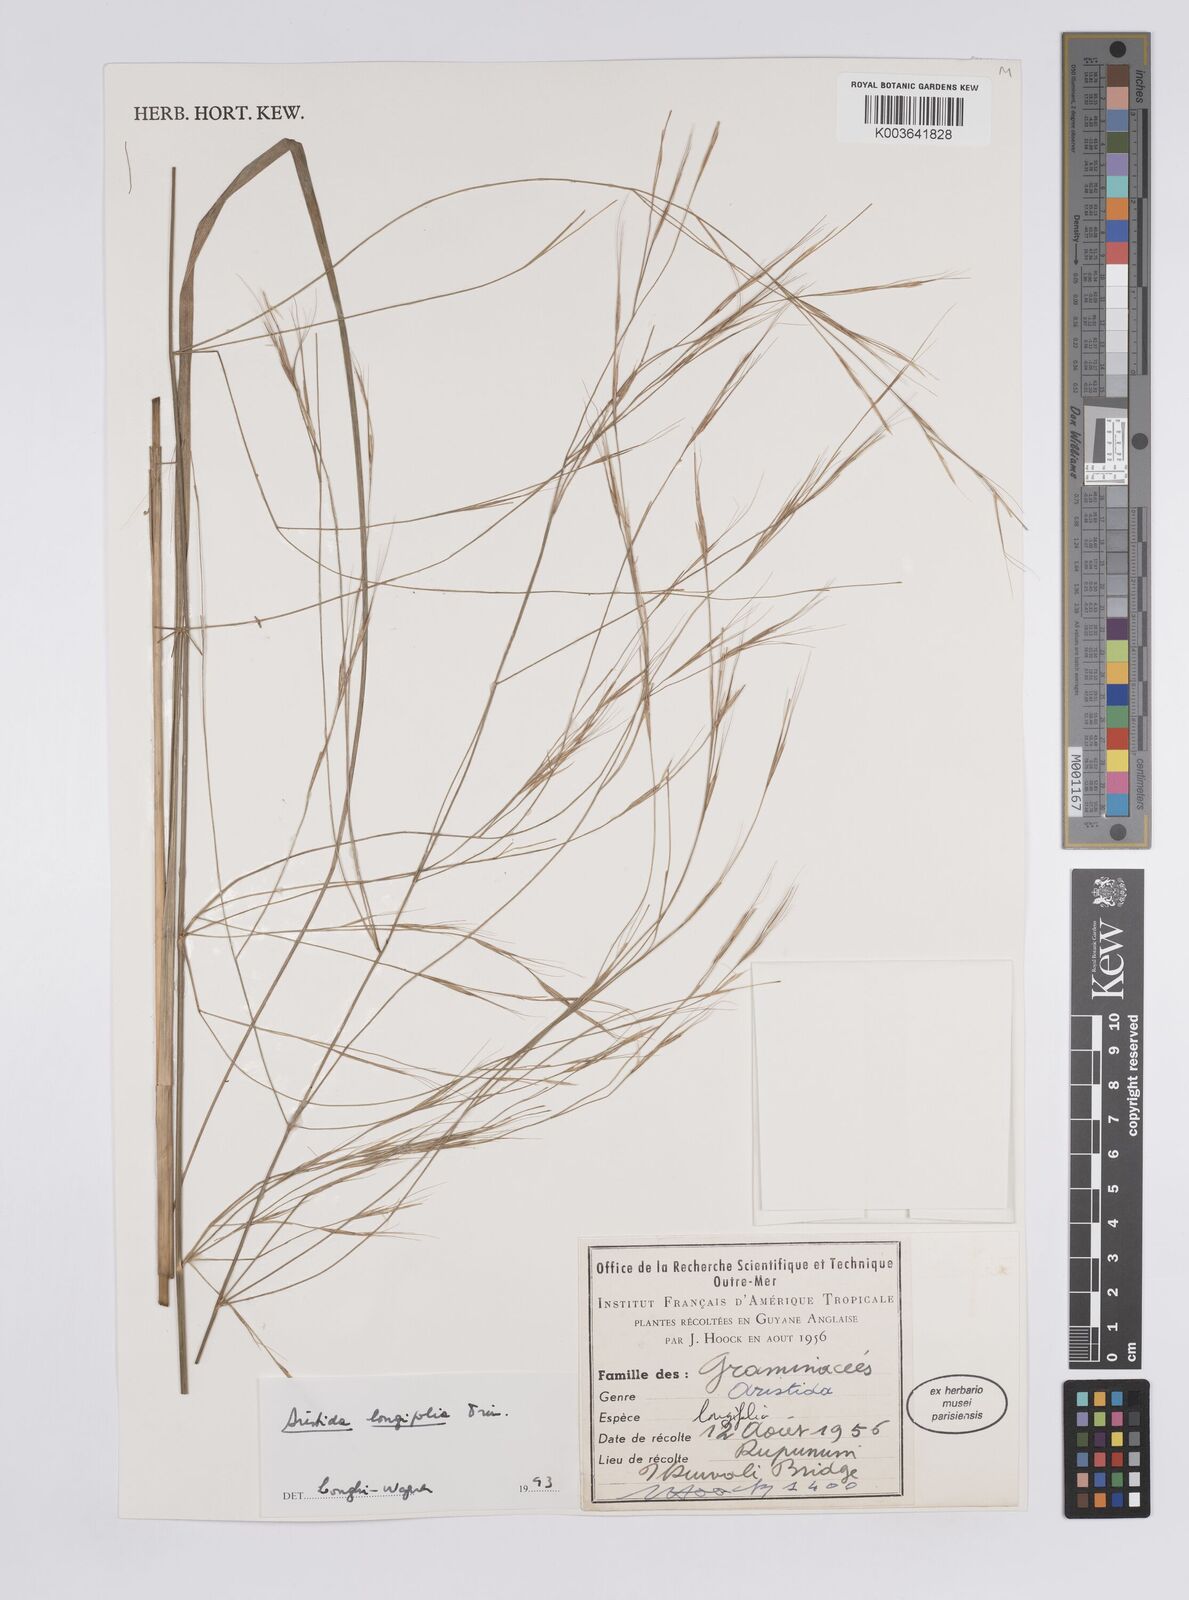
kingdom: Plantae
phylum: Tracheophyta
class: Liliopsida
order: Poales
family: Poaceae
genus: Aristida
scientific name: Aristida longifolia
